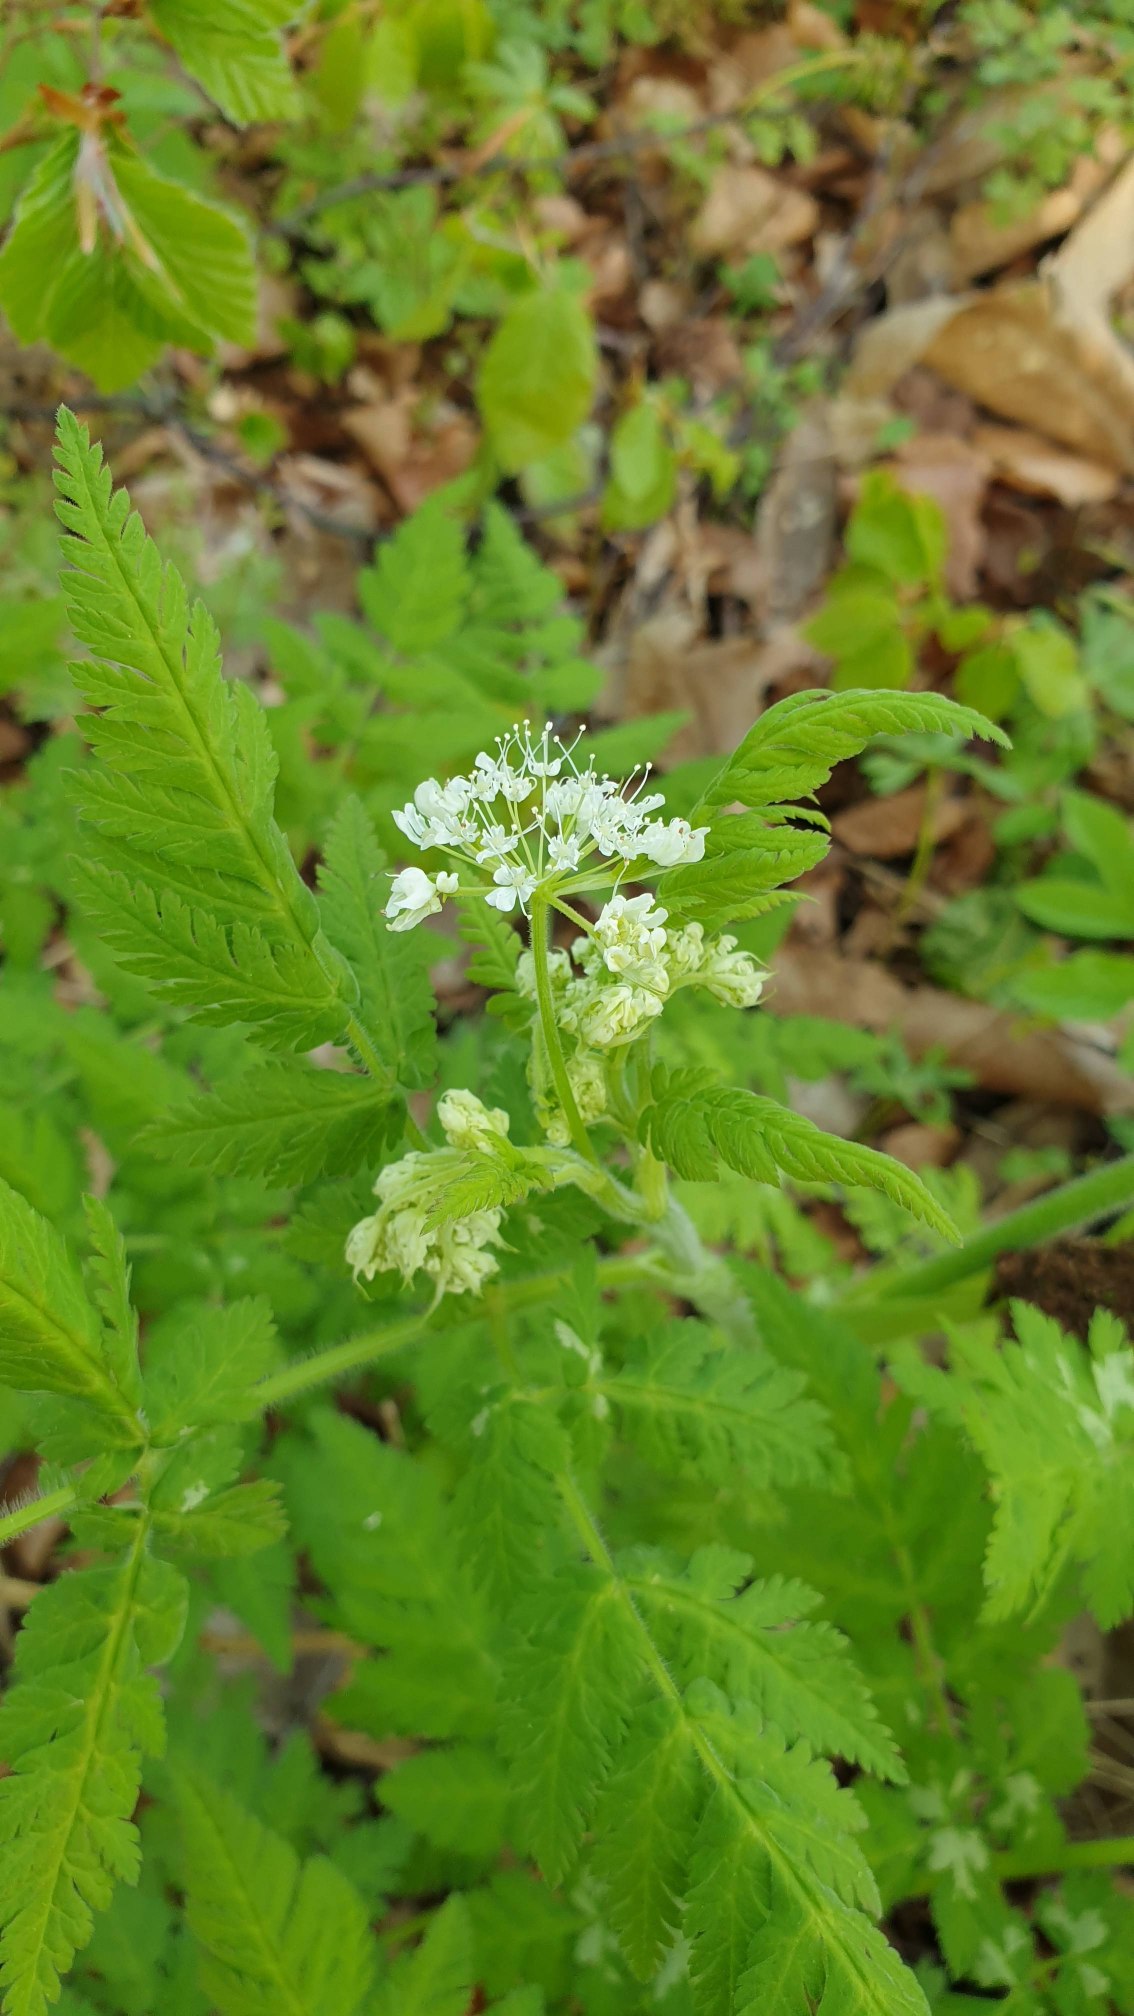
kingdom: Plantae
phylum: Tracheophyta
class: Magnoliopsida
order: Apiales
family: Apiaceae
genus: Myrrhis
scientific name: Myrrhis odorata
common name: Sødskærm
